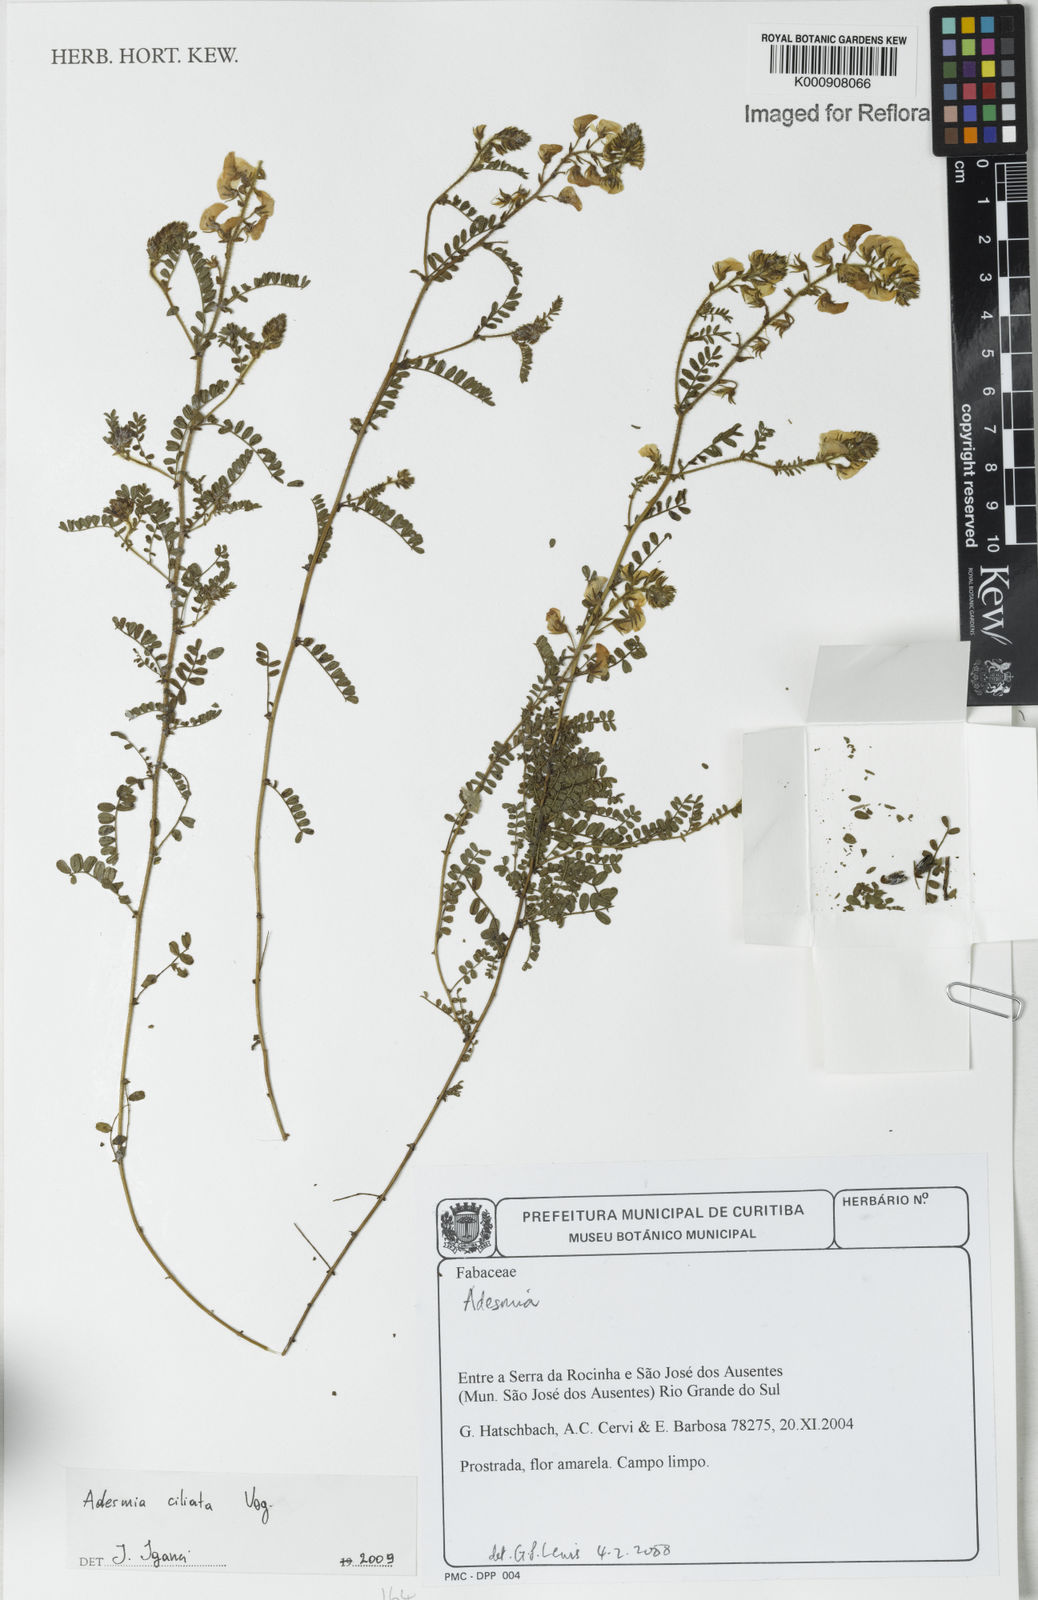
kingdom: Plantae
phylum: Tracheophyta
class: Magnoliopsida
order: Fabales
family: Fabaceae
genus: Adesmia
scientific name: Adesmia ciliata
